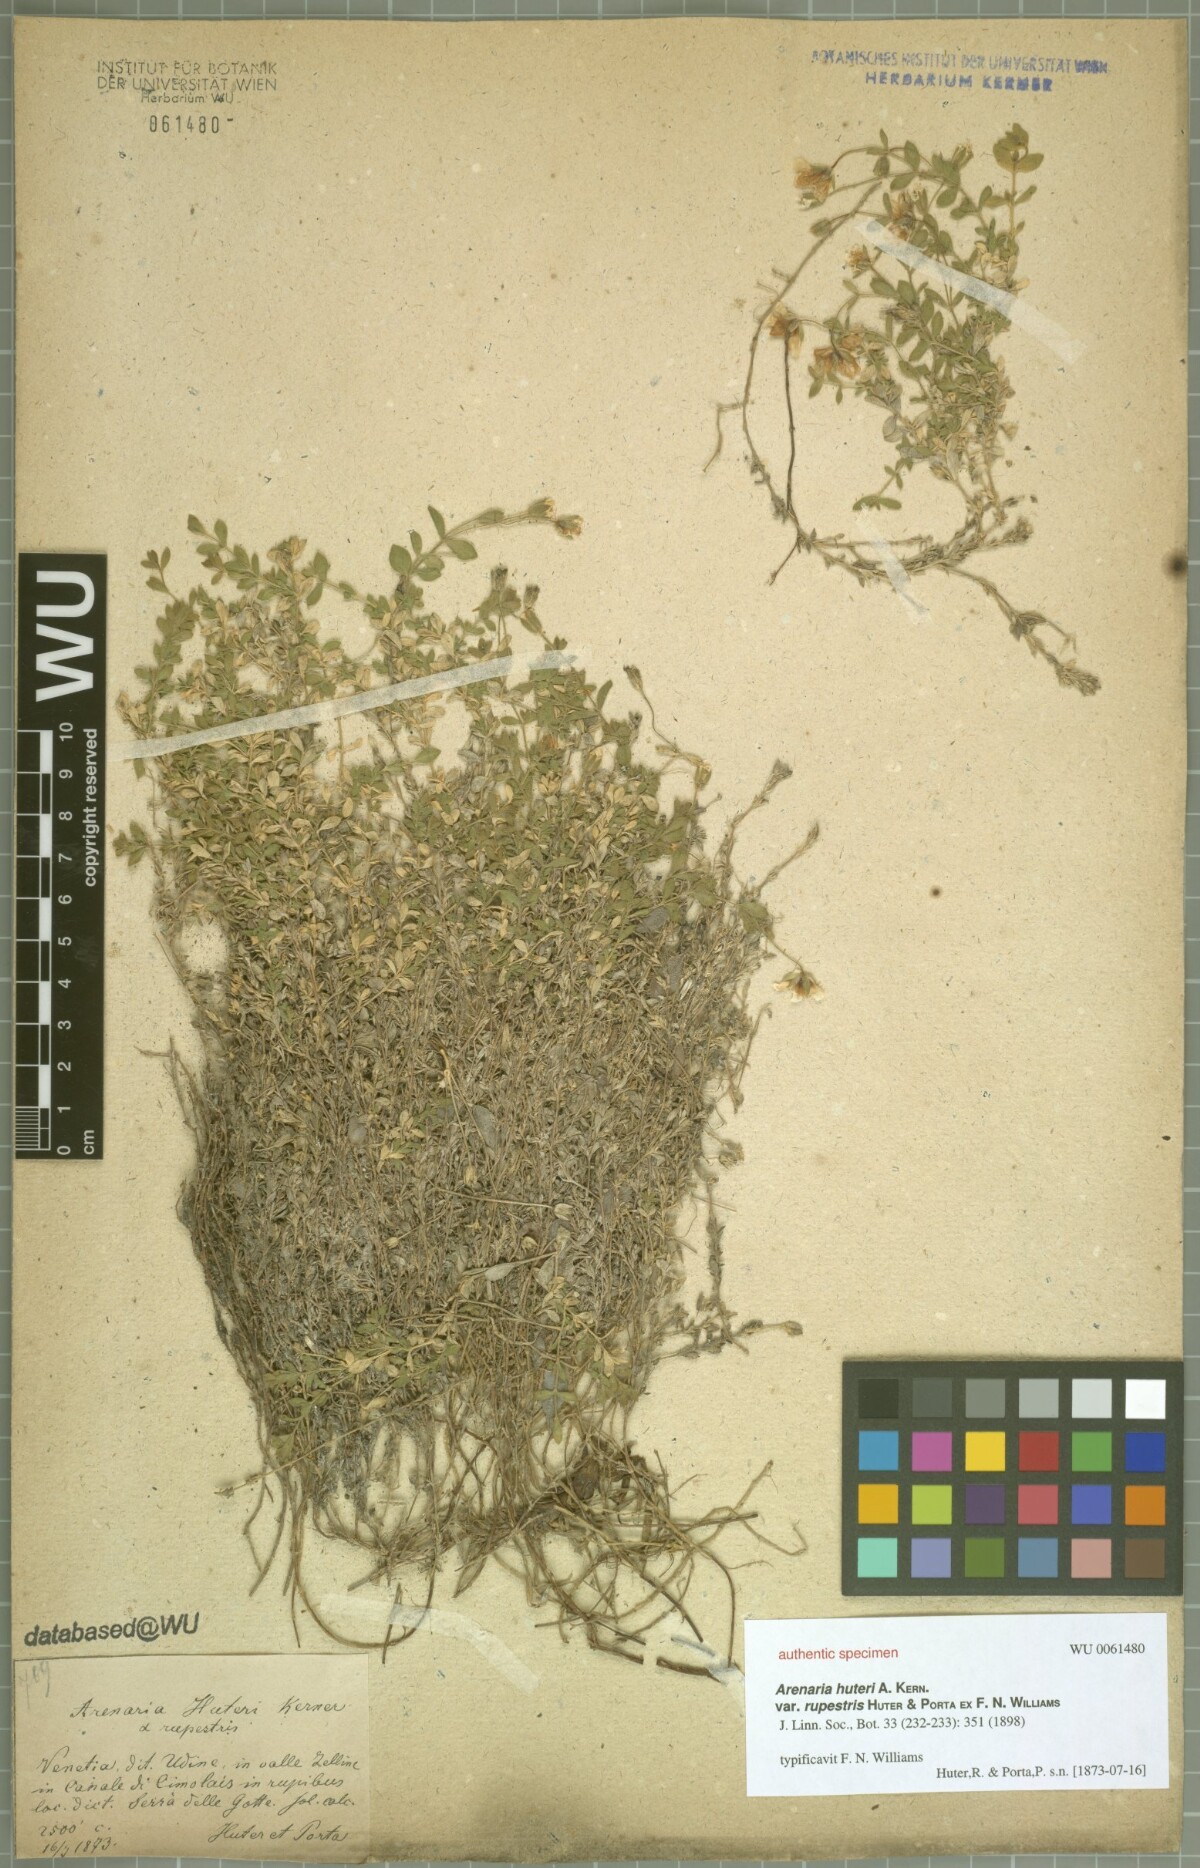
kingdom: Plantae
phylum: Tracheophyta
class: Magnoliopsida
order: Caryophyllales
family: Caryophyllaceae
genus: Arenaria
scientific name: Arenaria huteri
